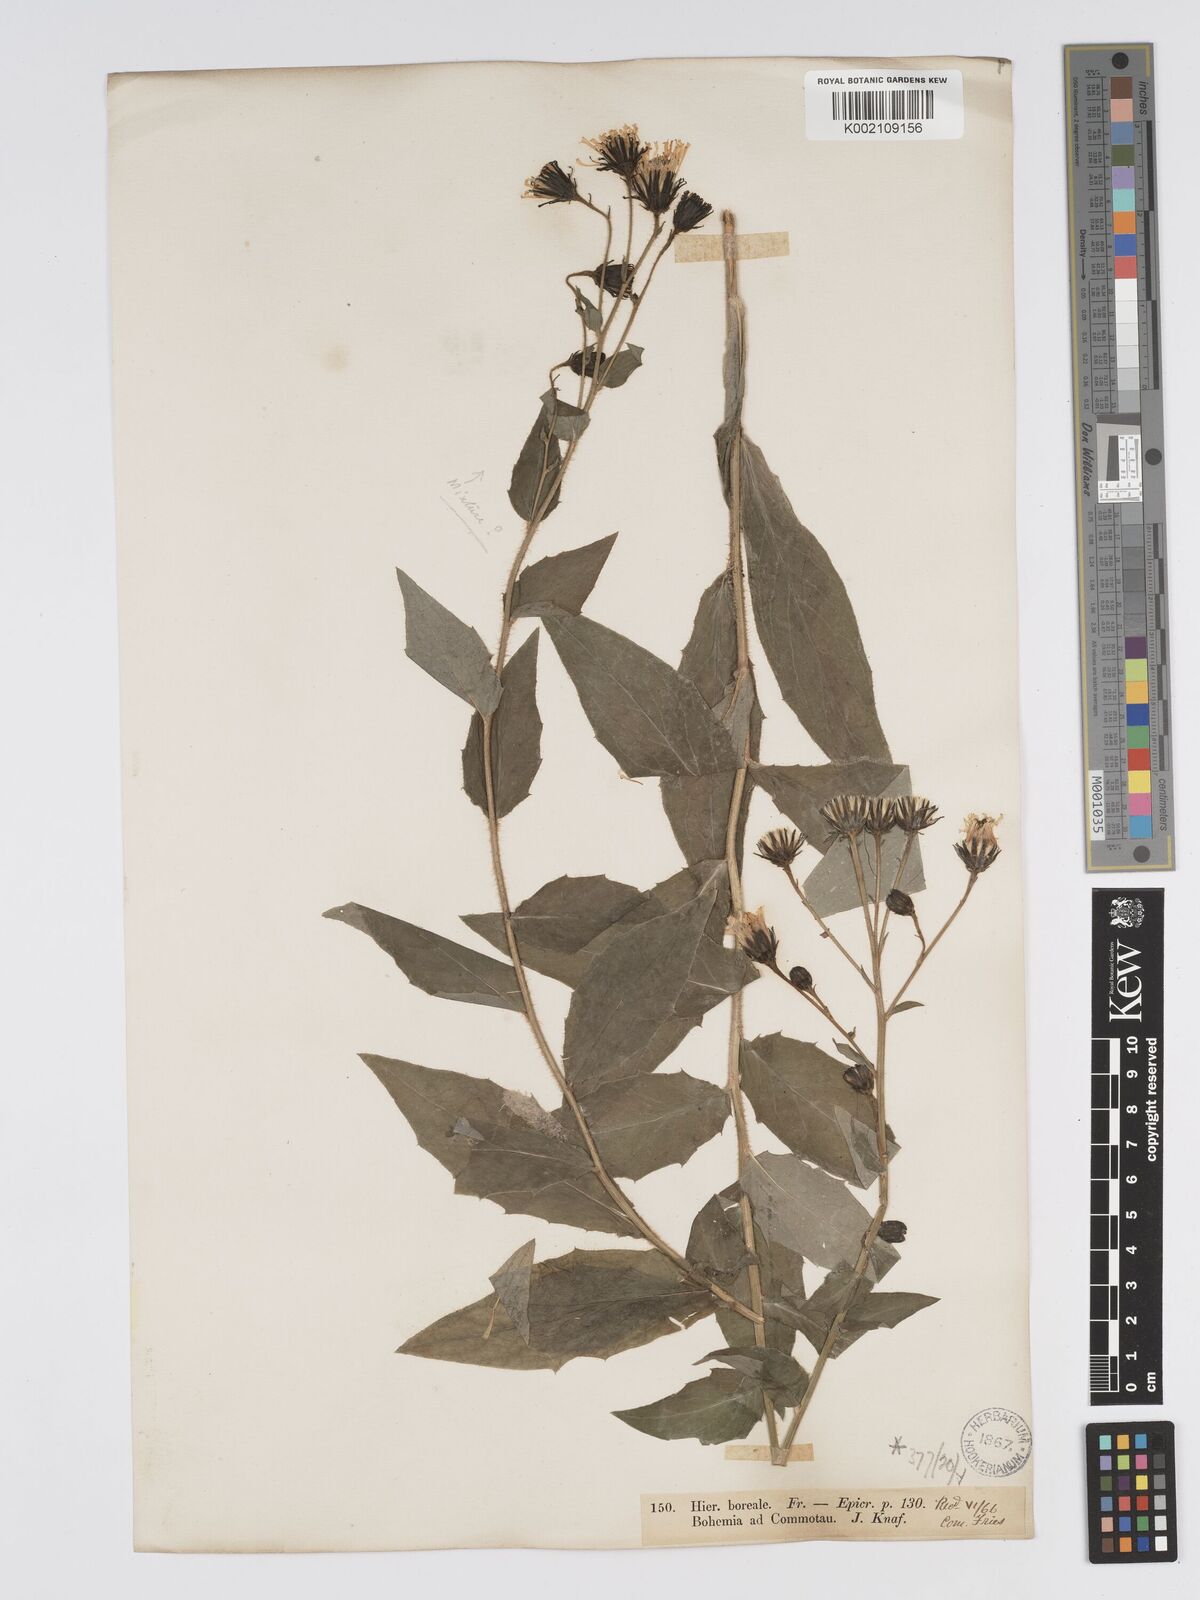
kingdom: Plantae
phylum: Tracheophyta
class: Magnoliopsida
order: Asterales
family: Asteraceae
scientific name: Asteraceae
